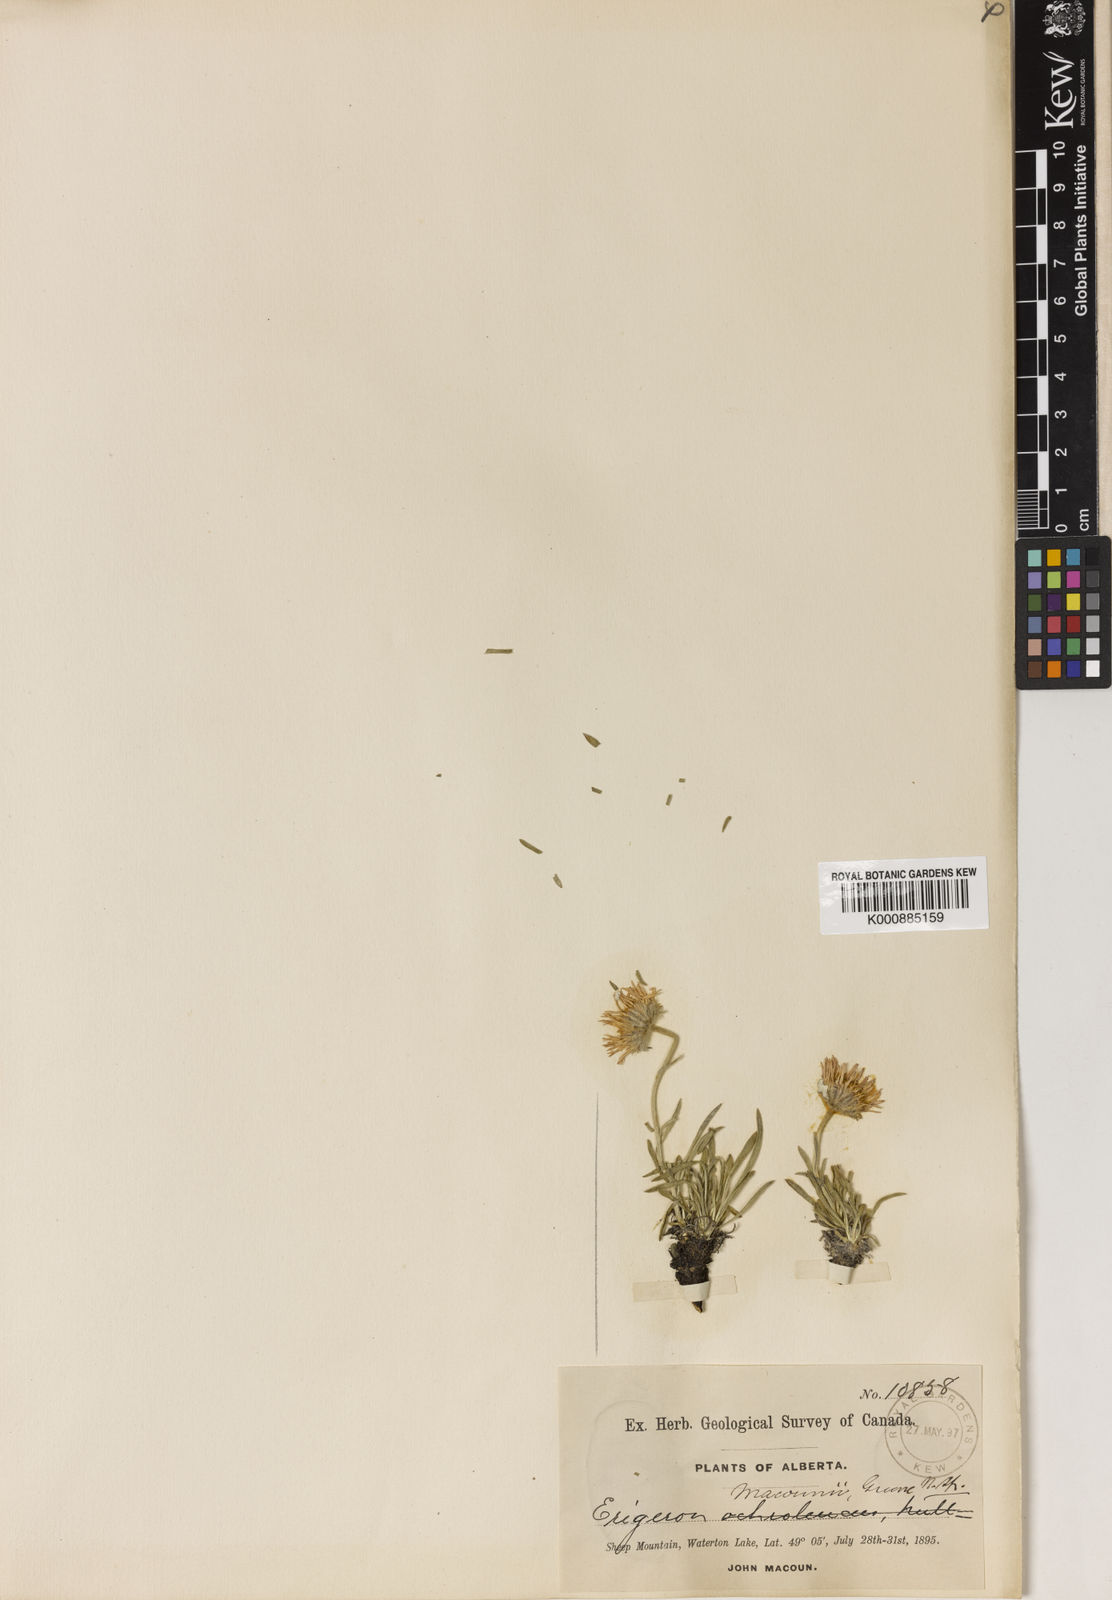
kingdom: Plantae
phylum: Tracheophyta
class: Magnoliopsida
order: Asterales
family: Asteraceae
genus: Erigeron
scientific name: Erigeron
